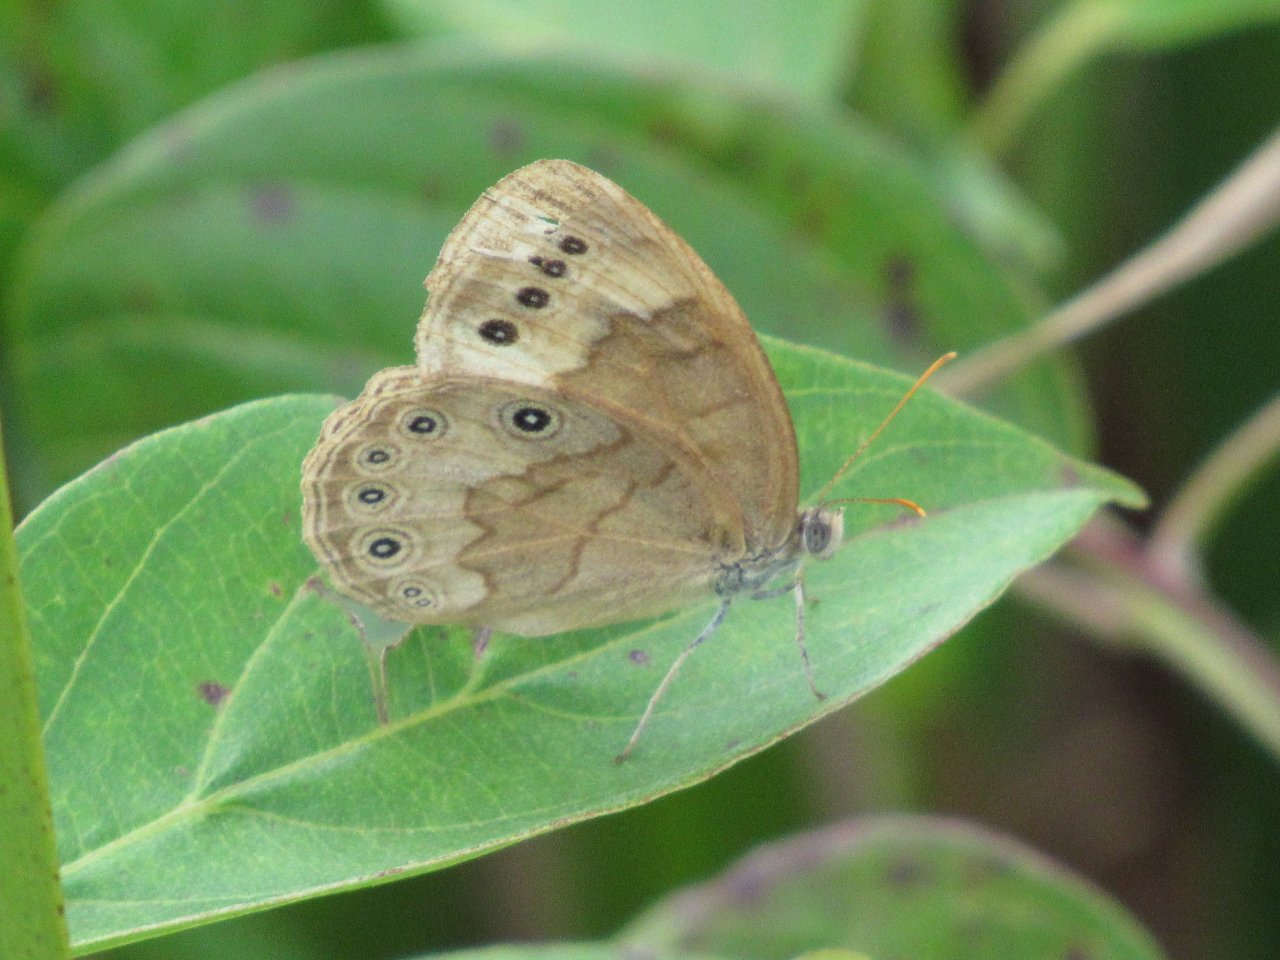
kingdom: Animalia
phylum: Arthropoda
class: Insecta
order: Lepidoptera
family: Nymphalidae
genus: Lethe
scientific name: Lethe eurydice
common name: Eyed Brown
